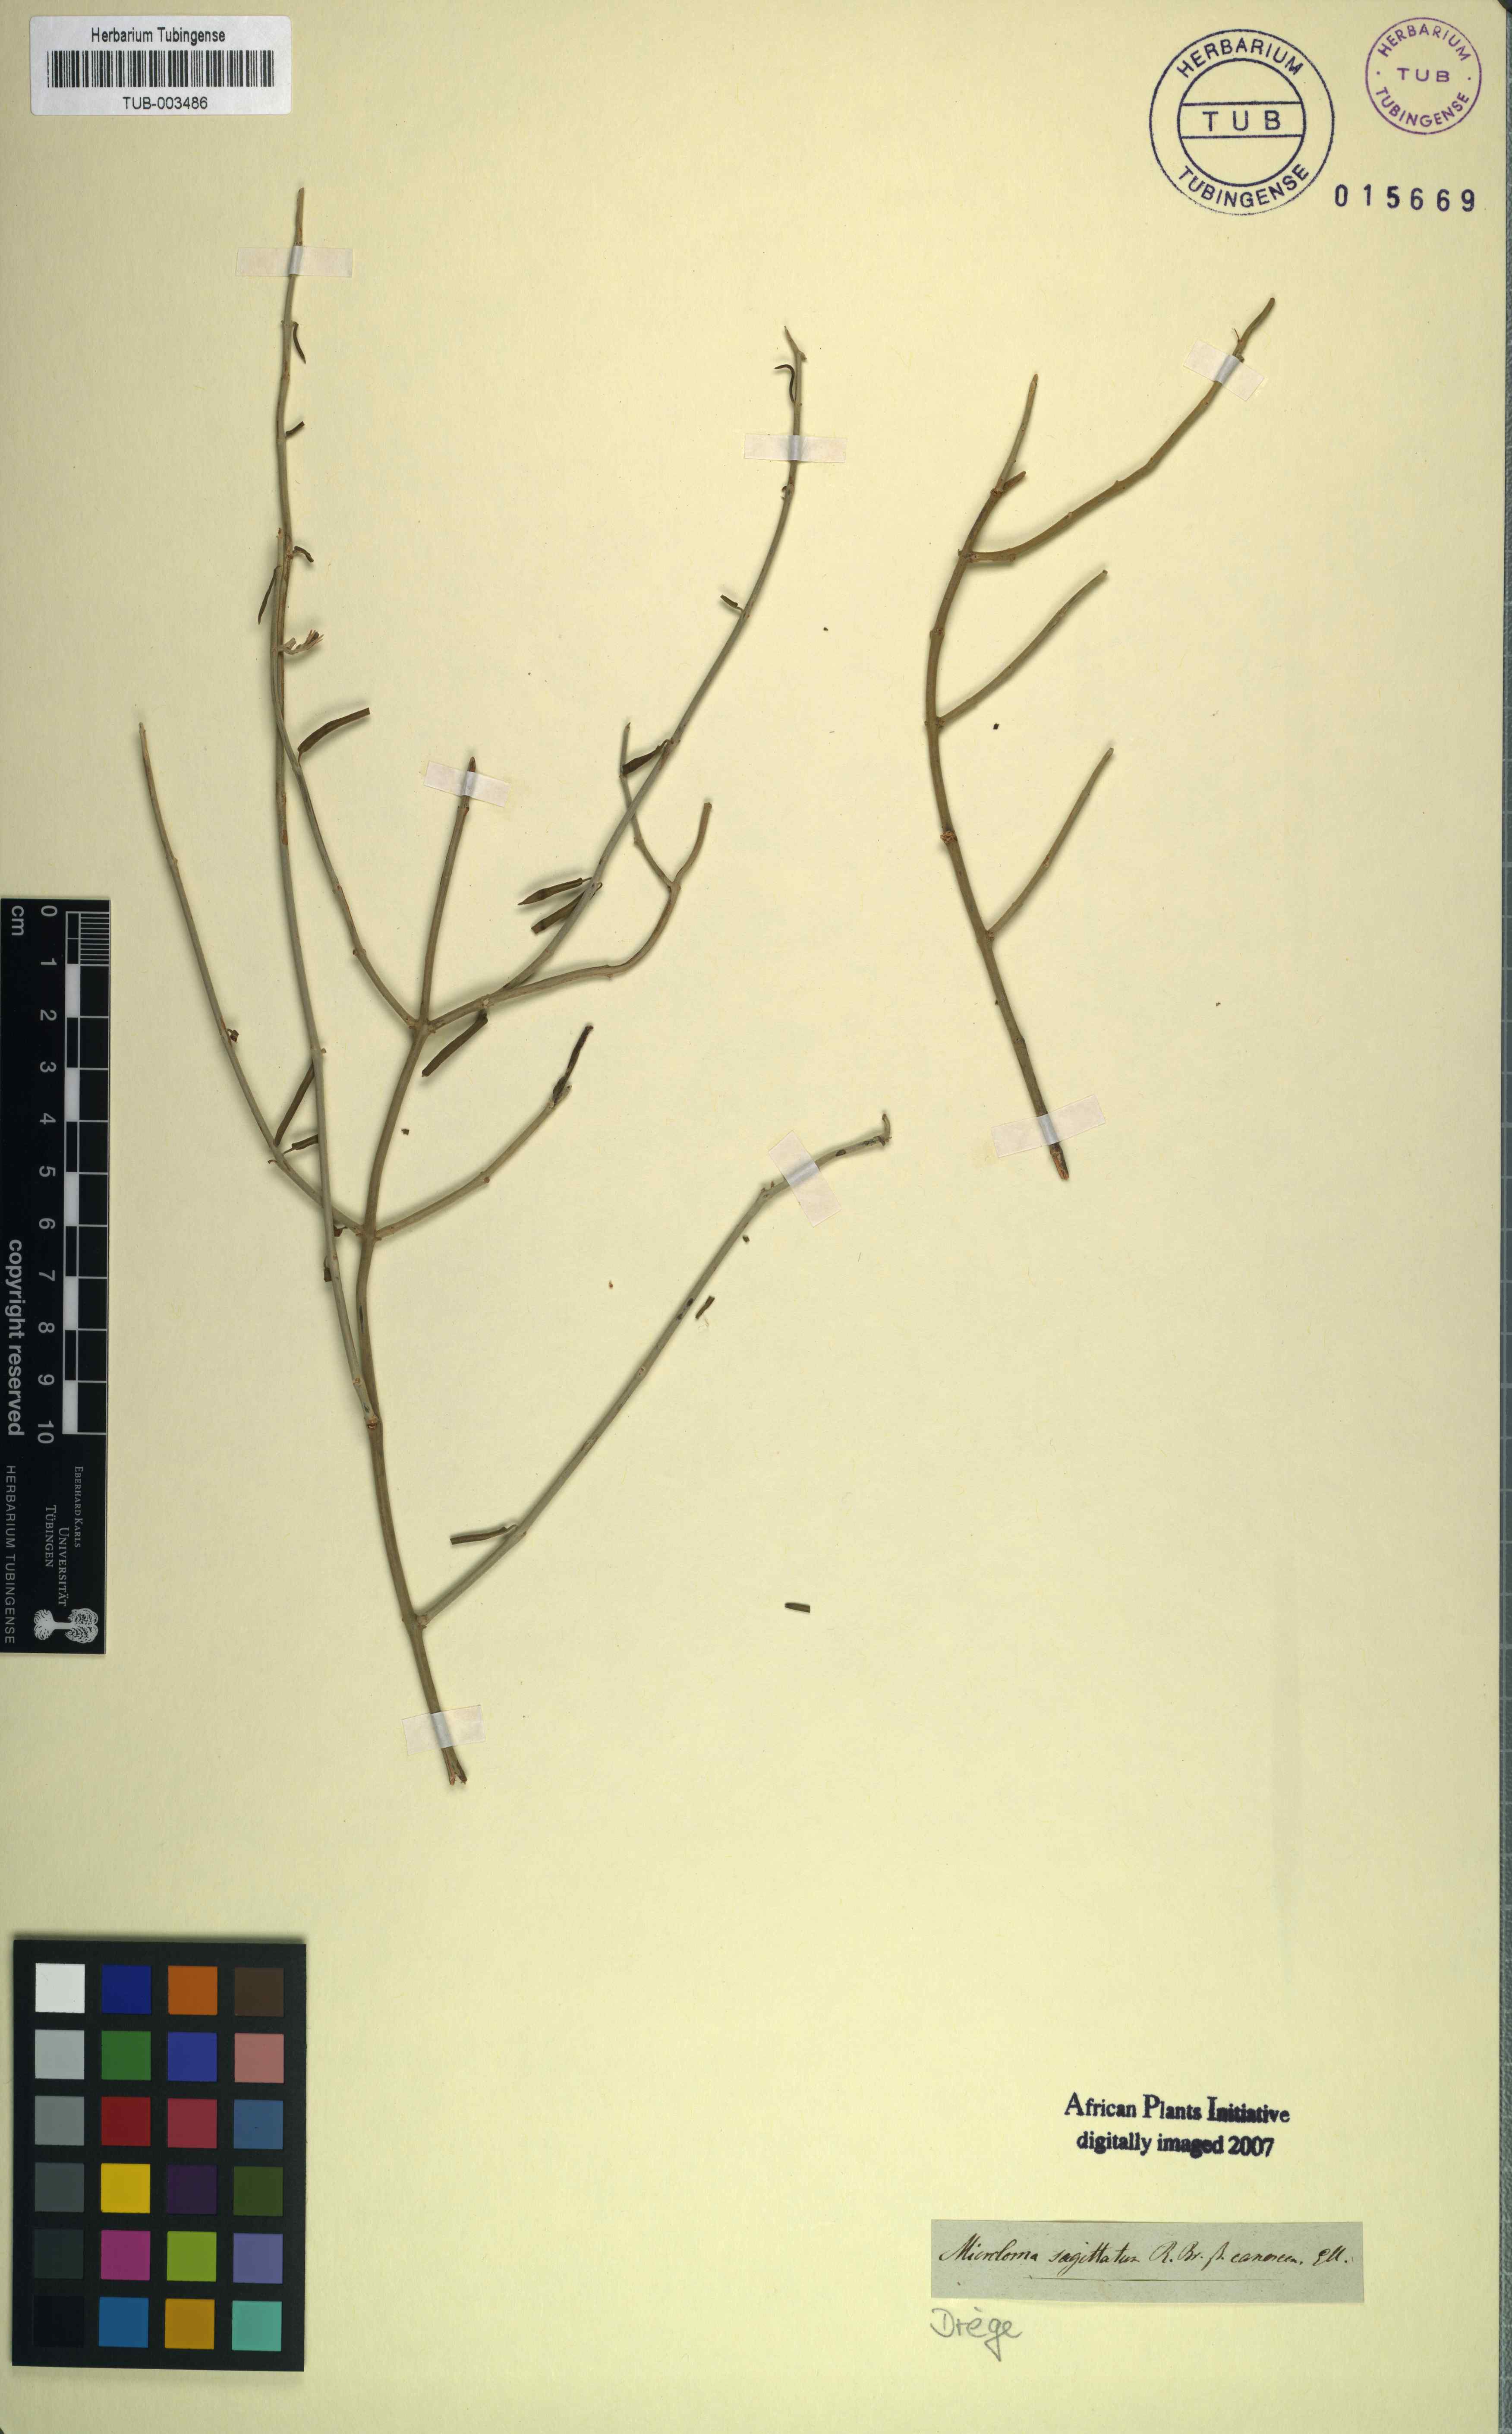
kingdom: Plantae
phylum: Tracheophyta
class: Magnoliopsida
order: Gentianales
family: Apocynaceae
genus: Microloma
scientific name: Microloma sagittatum
